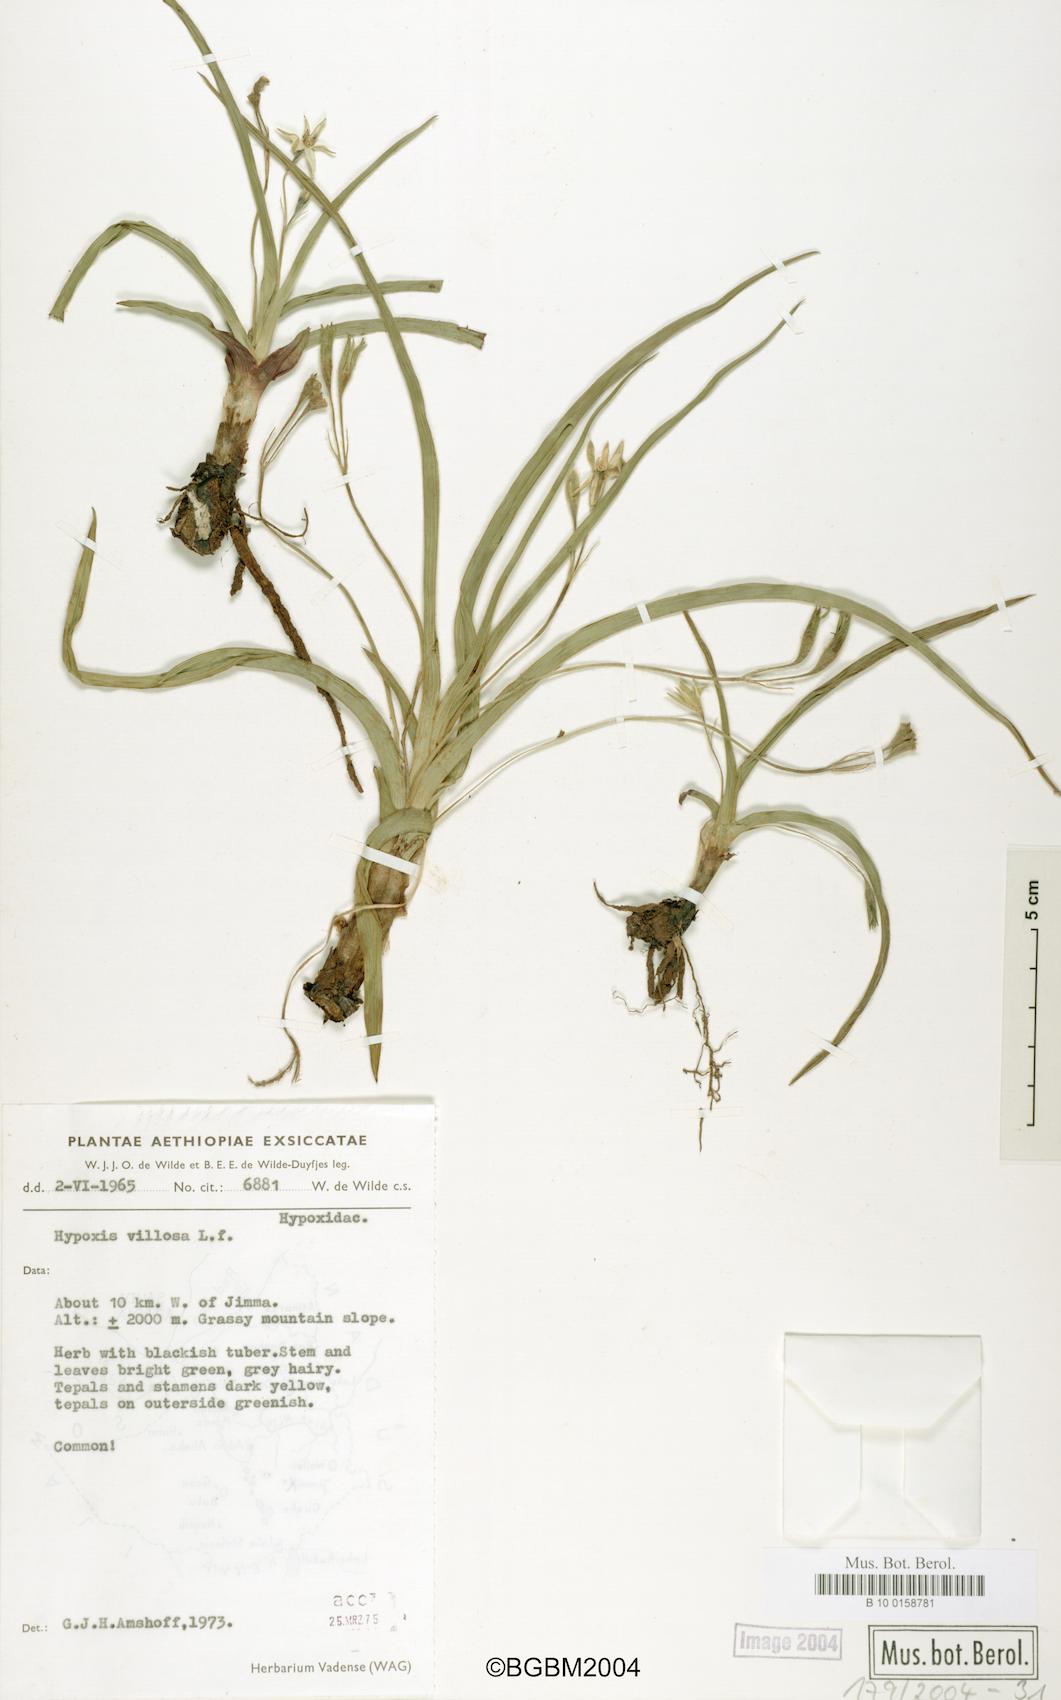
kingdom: Plantae
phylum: Tracheophyta
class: Liliopsida
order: Asparagales
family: Hypoxidaceae
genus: Hypoxis
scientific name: Hypoxis villosa
